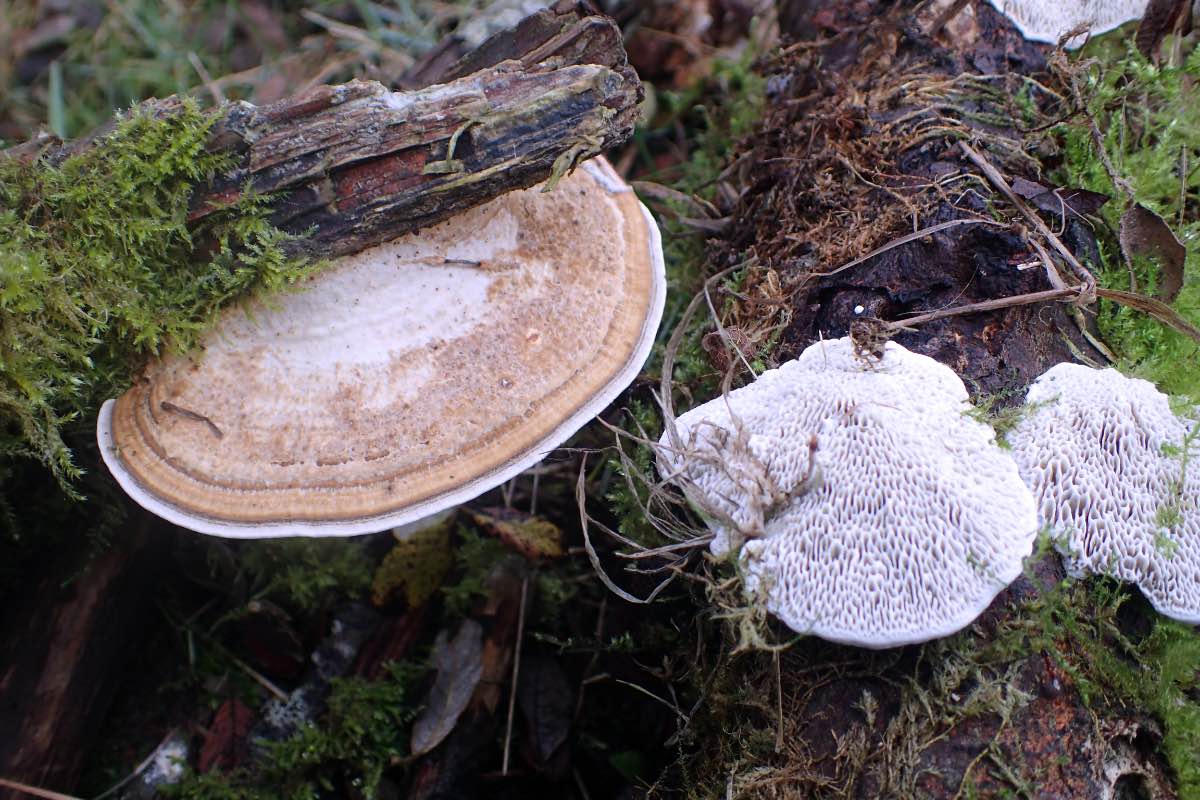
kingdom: Fungi
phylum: Basidiomycota
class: Agaricomycetes
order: Polyporales
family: Polyporaceae
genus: Daedaleopsis
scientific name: Daedaleopsis confragosa
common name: rødmende læderporesvamp
